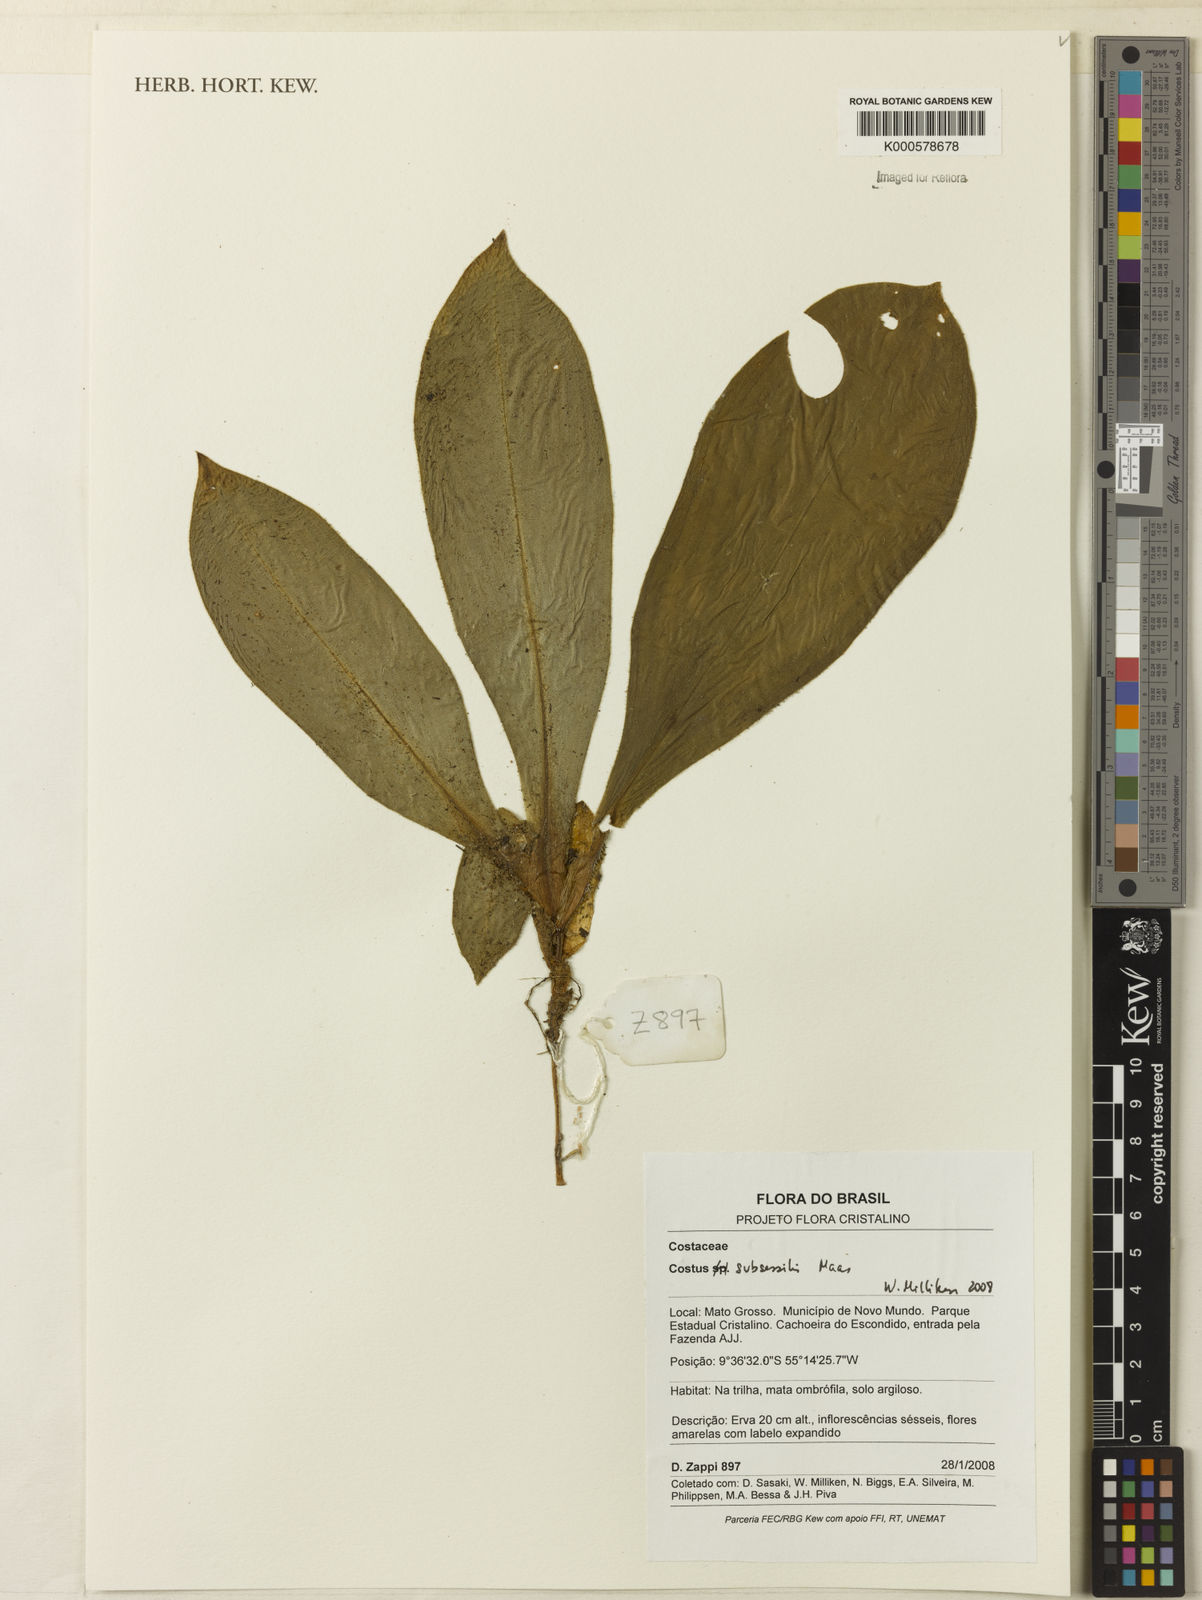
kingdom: Plantae
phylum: Tracheophyta
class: Liliopsida
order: Zingiberales
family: Costaceae
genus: Chamaecostus
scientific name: Chamaecostus subsessilis
